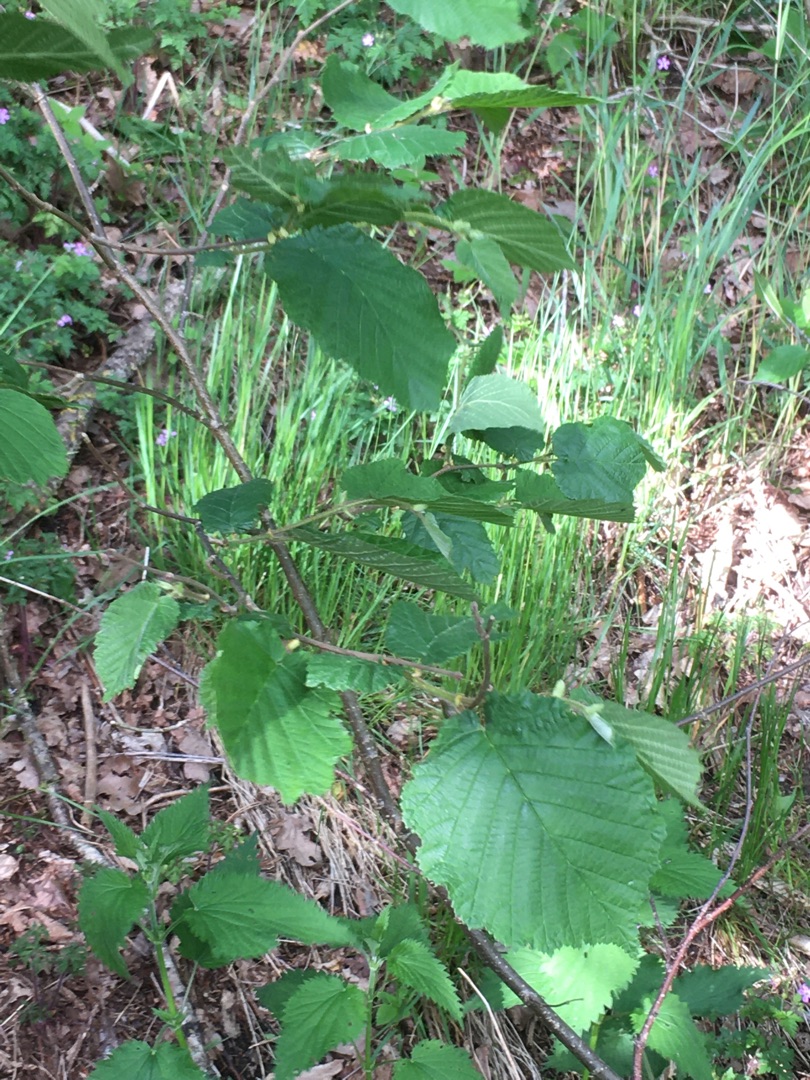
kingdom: Plantae
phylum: Tracheophyta
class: Magnoliopsida
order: Fagales
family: Betulaceae
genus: Corylus
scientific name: Corylus avellana
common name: Hassel
